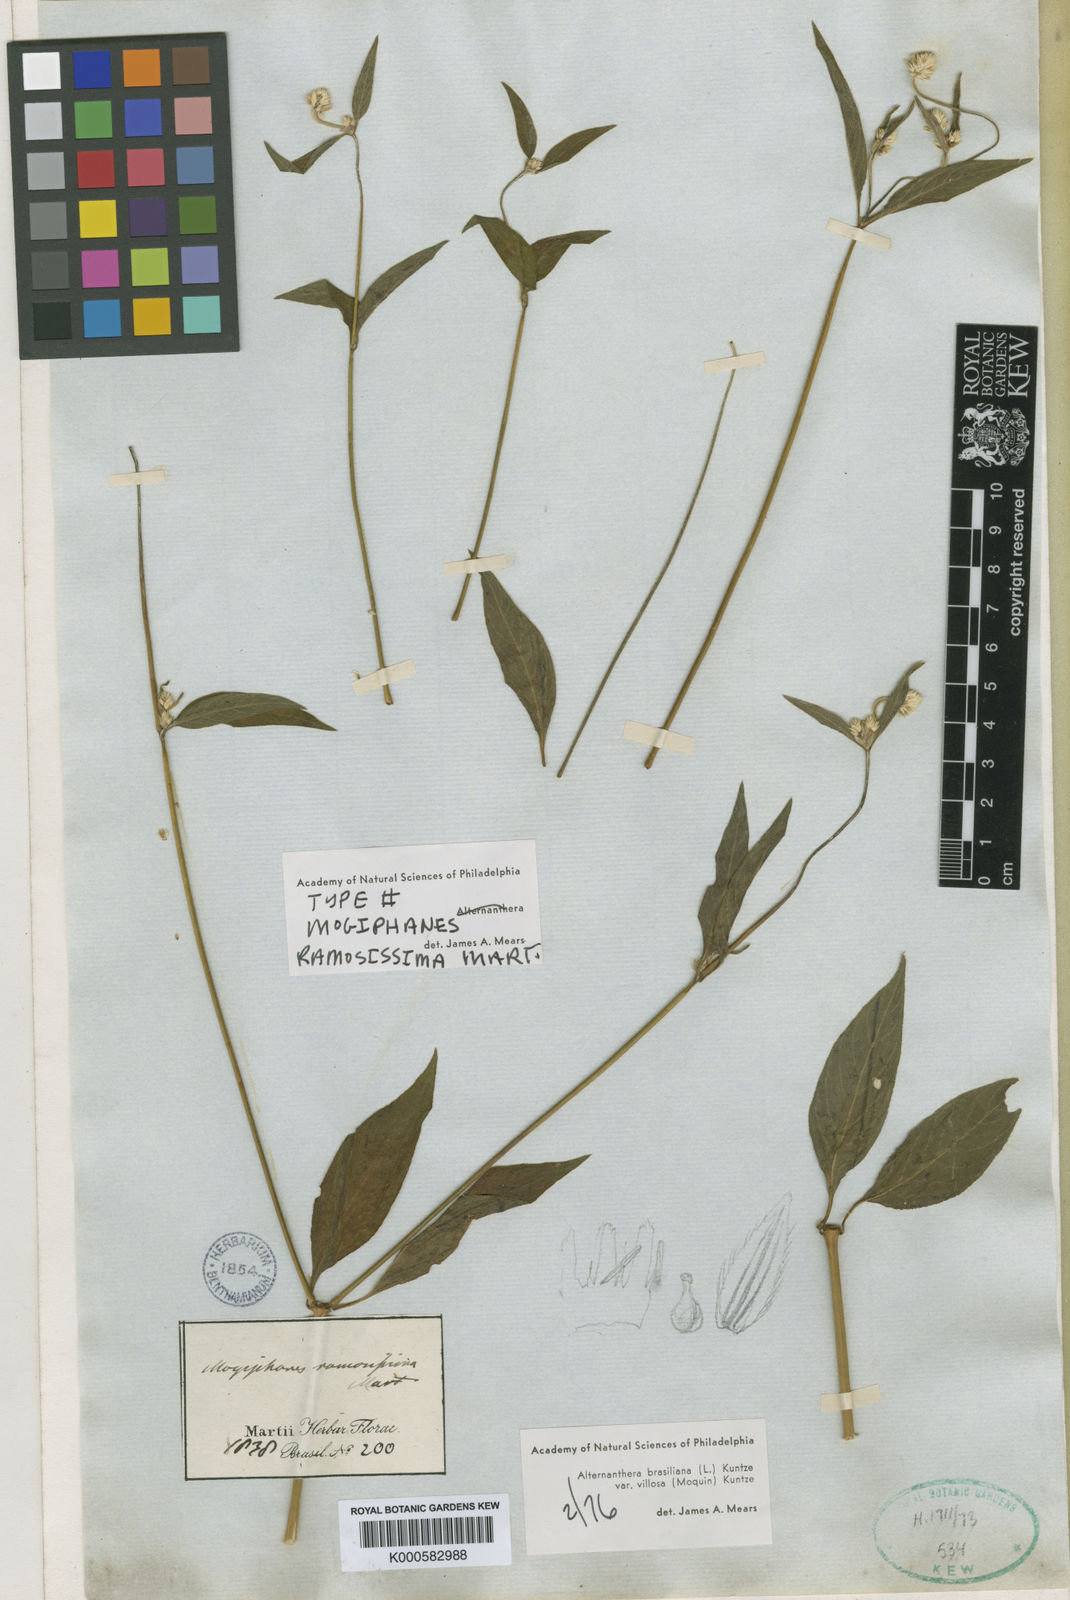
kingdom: Plantae
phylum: Tracheophyta
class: Magnoliopsida
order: Caryophyllales
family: Amaranthaceae
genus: Alternanthera
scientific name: Alternanthera ramosissima
